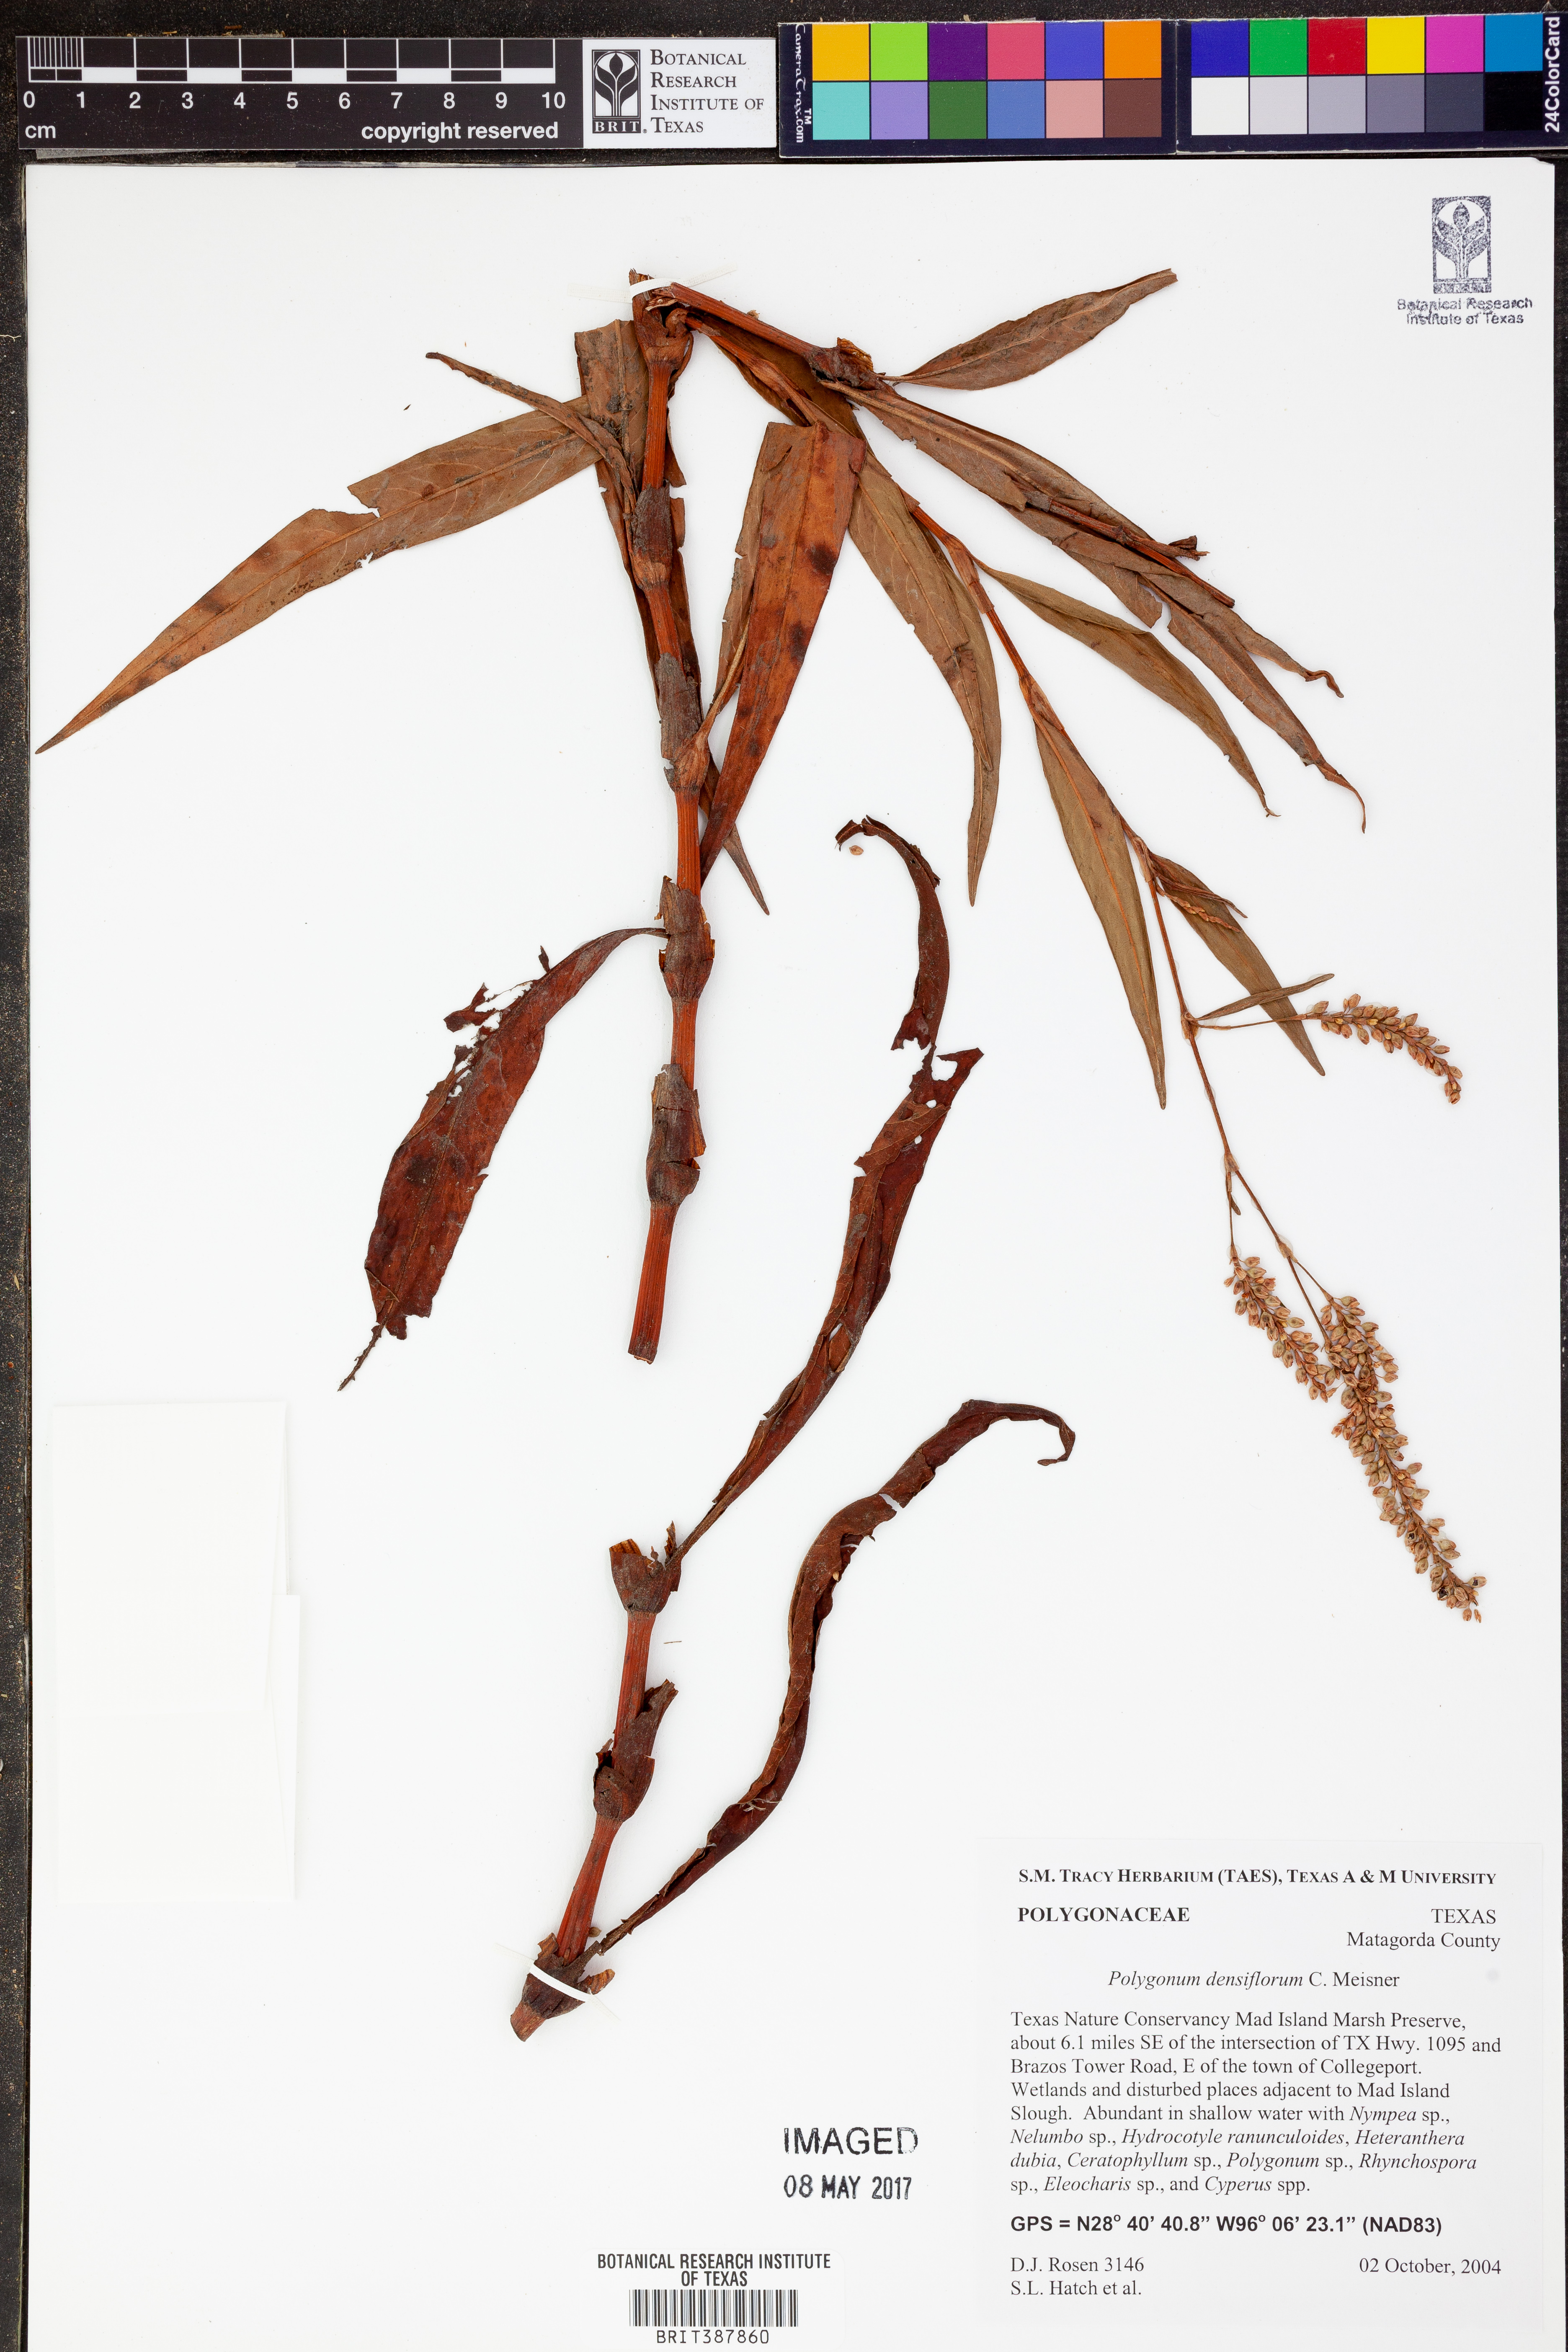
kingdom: Plantae
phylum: Tracheophyta
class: Magnoliopsida
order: Caryophyllales
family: Polygonaceae
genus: Persicaria
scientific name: Persicaria glabra
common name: Denseflower knotweed
